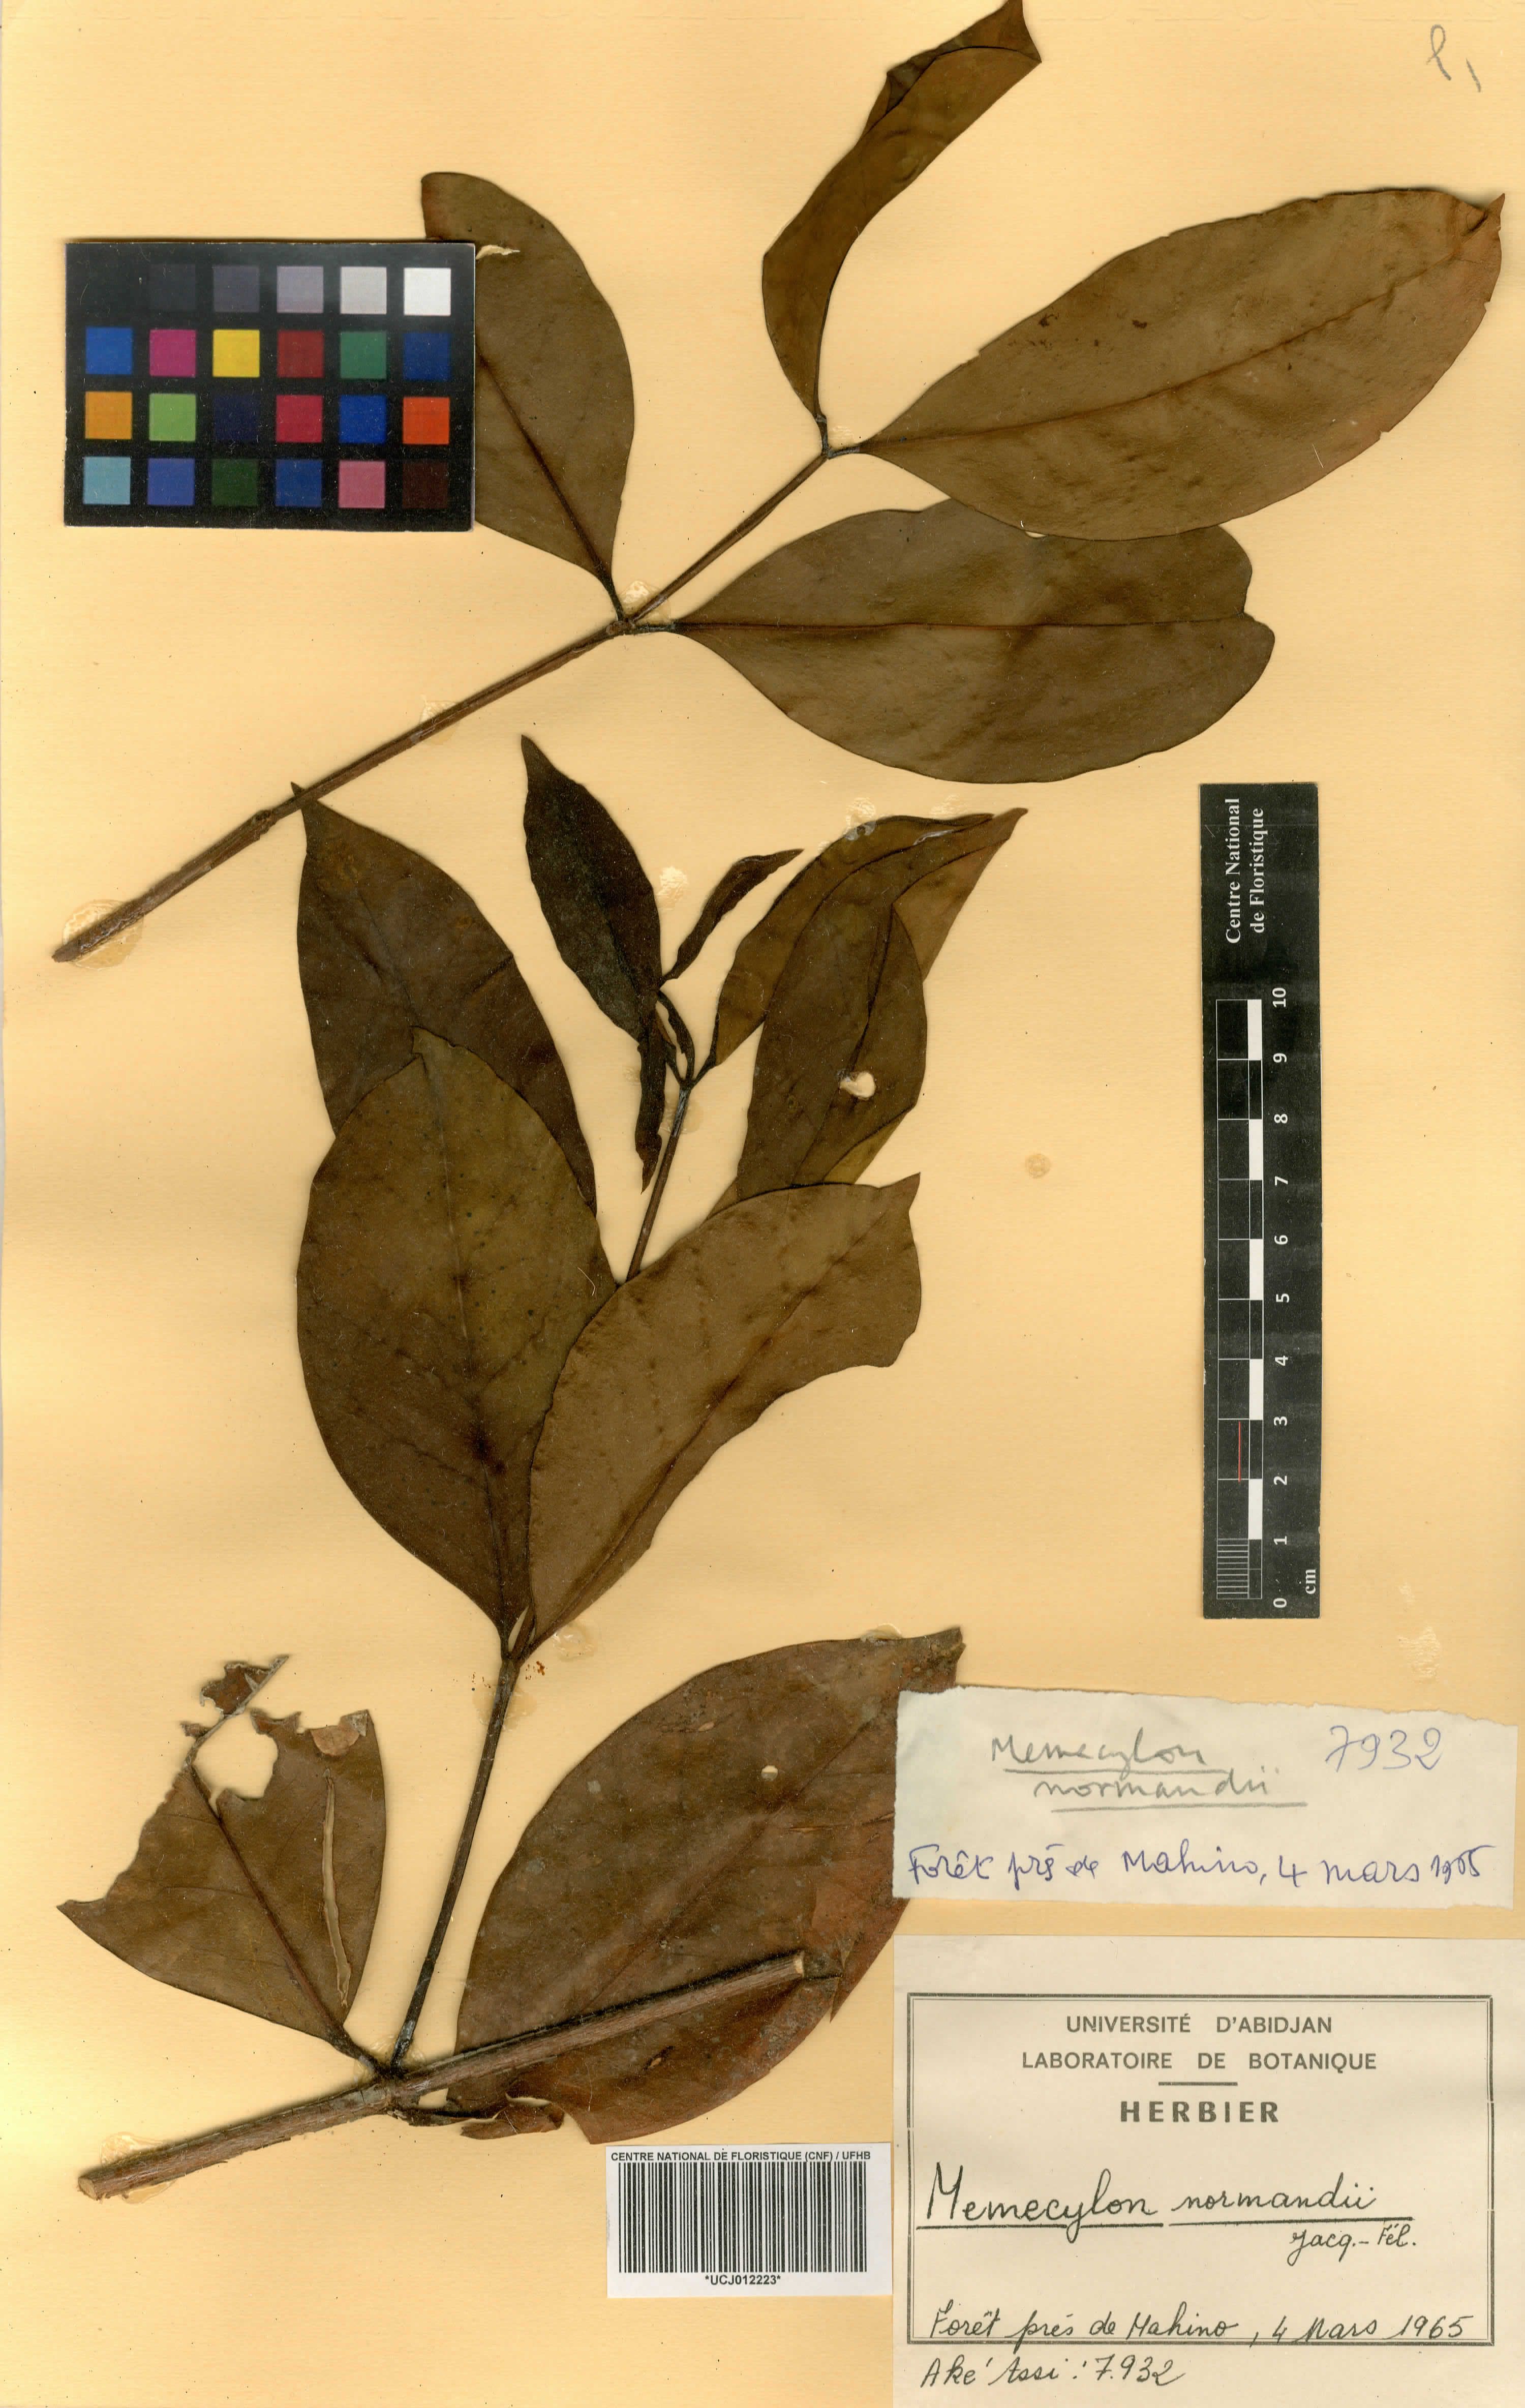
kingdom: Plantae
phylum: Tracheophyta
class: Magnoliopsida
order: Myrtales
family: Melastomataceae
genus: Memecylon
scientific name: Memecylon normandii
